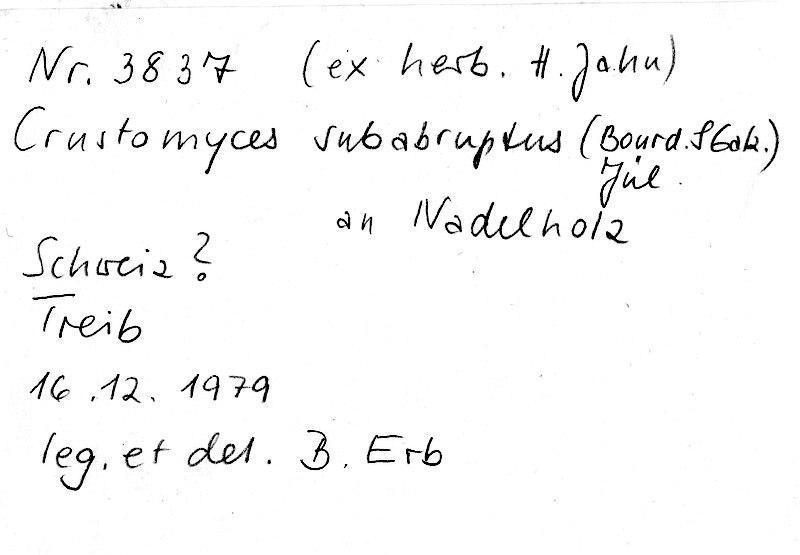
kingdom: Fungi
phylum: Basidiomycota
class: Agaricomycetes
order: Agaricales
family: Cystostereaceae
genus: Crustomyces
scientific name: Crustomyces subabruptus
